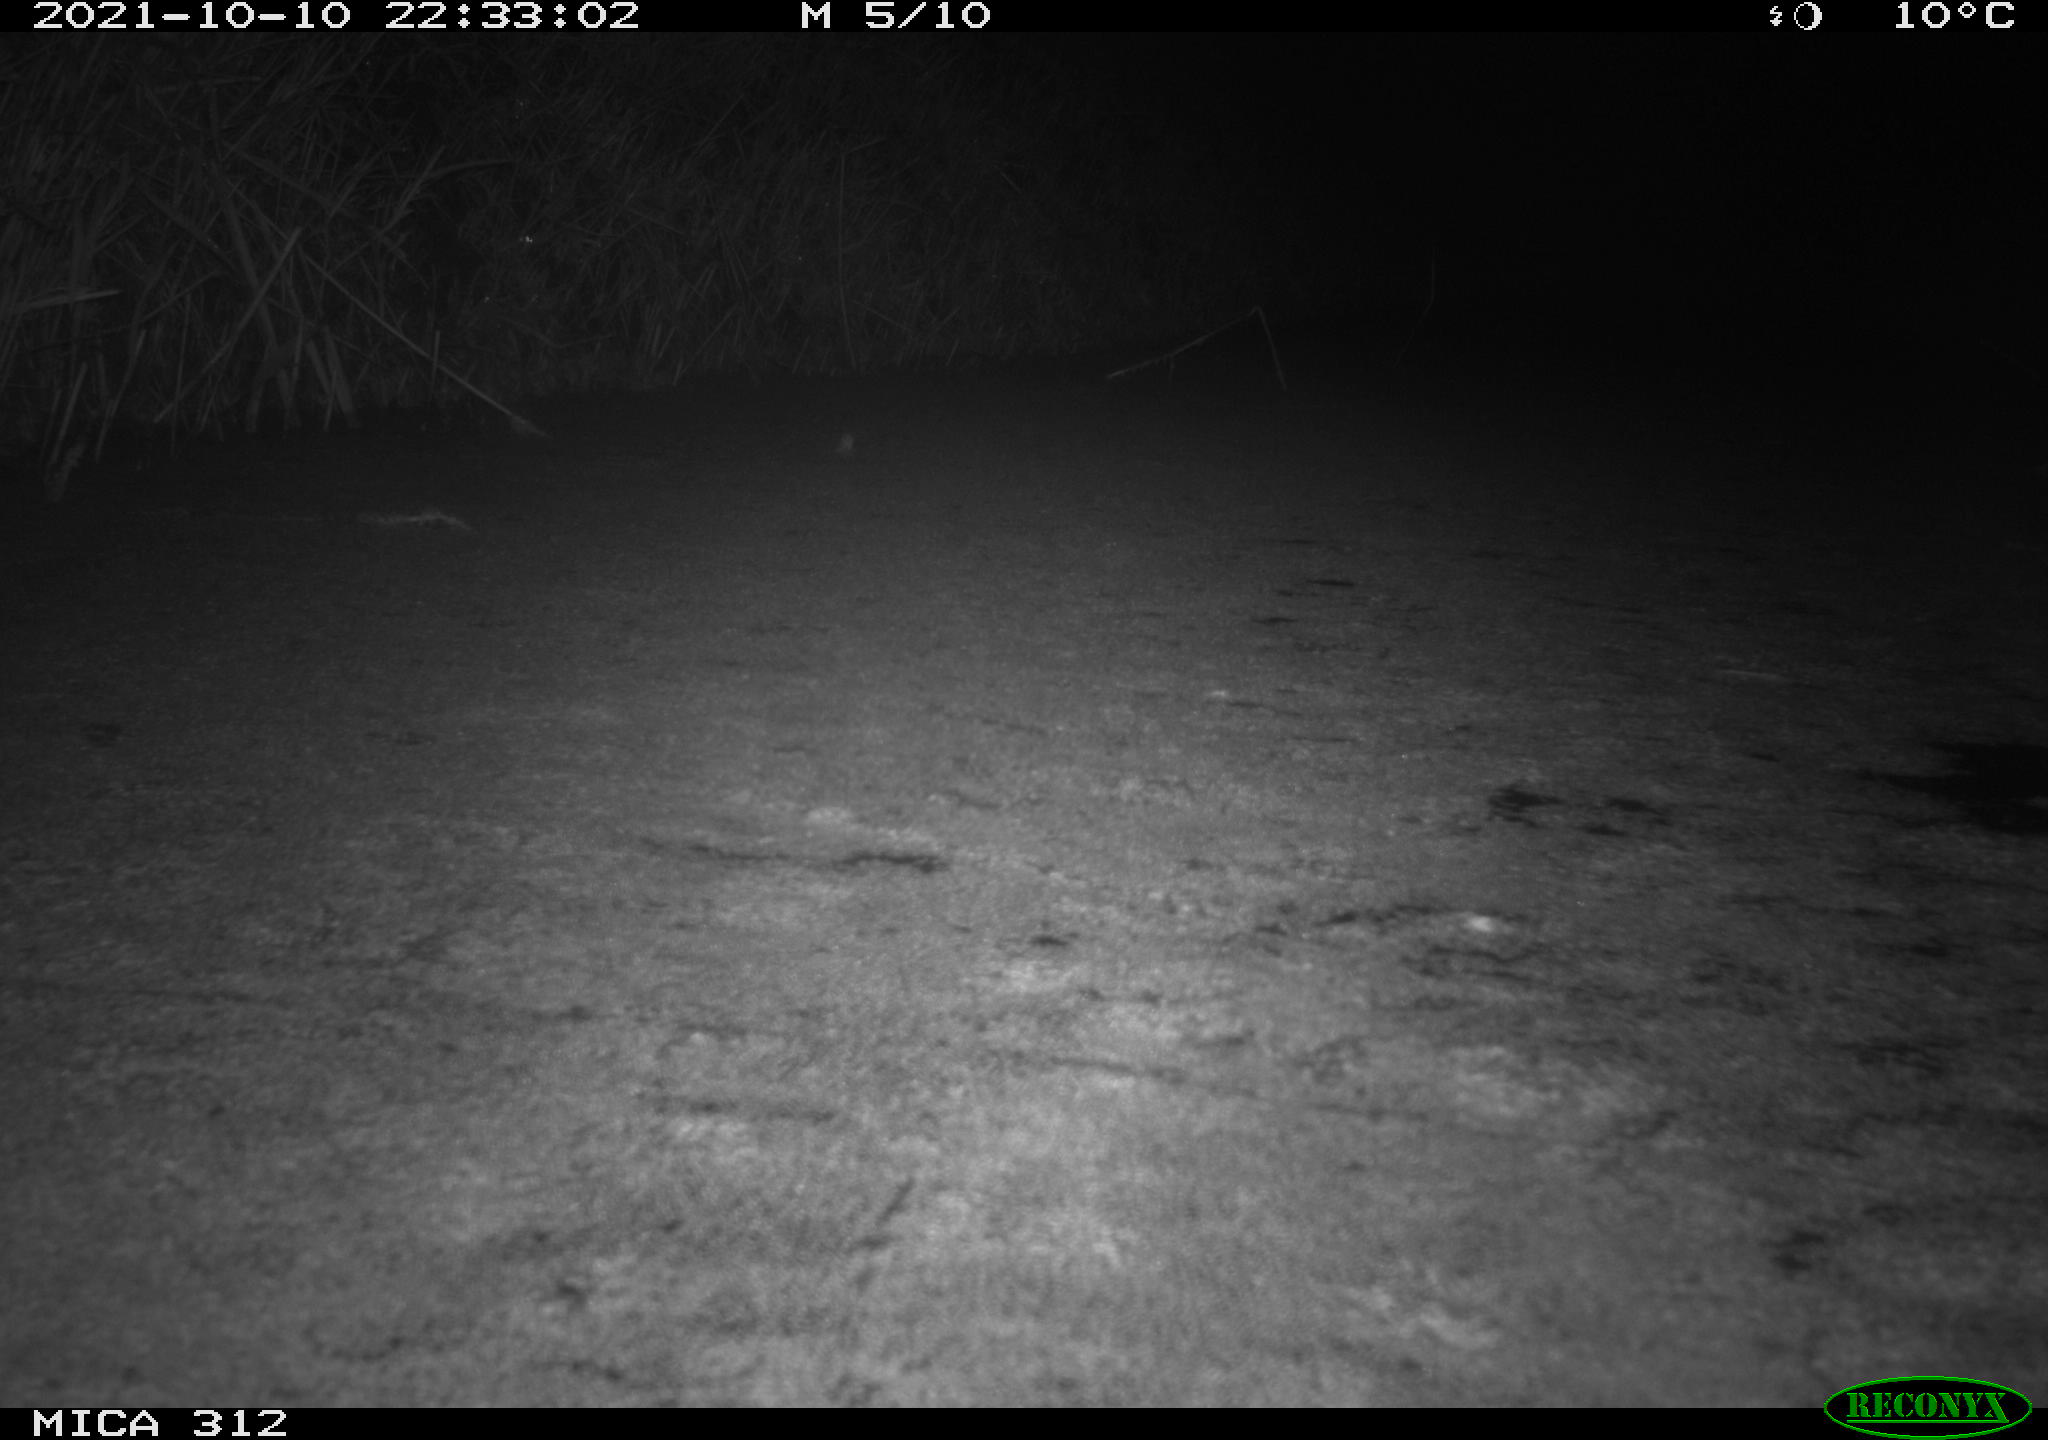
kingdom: Animalia
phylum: Chordata
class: Mammalia
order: Rodentia
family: Muridae
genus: Rattus
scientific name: Rattus norvegicus
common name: Brown rat
